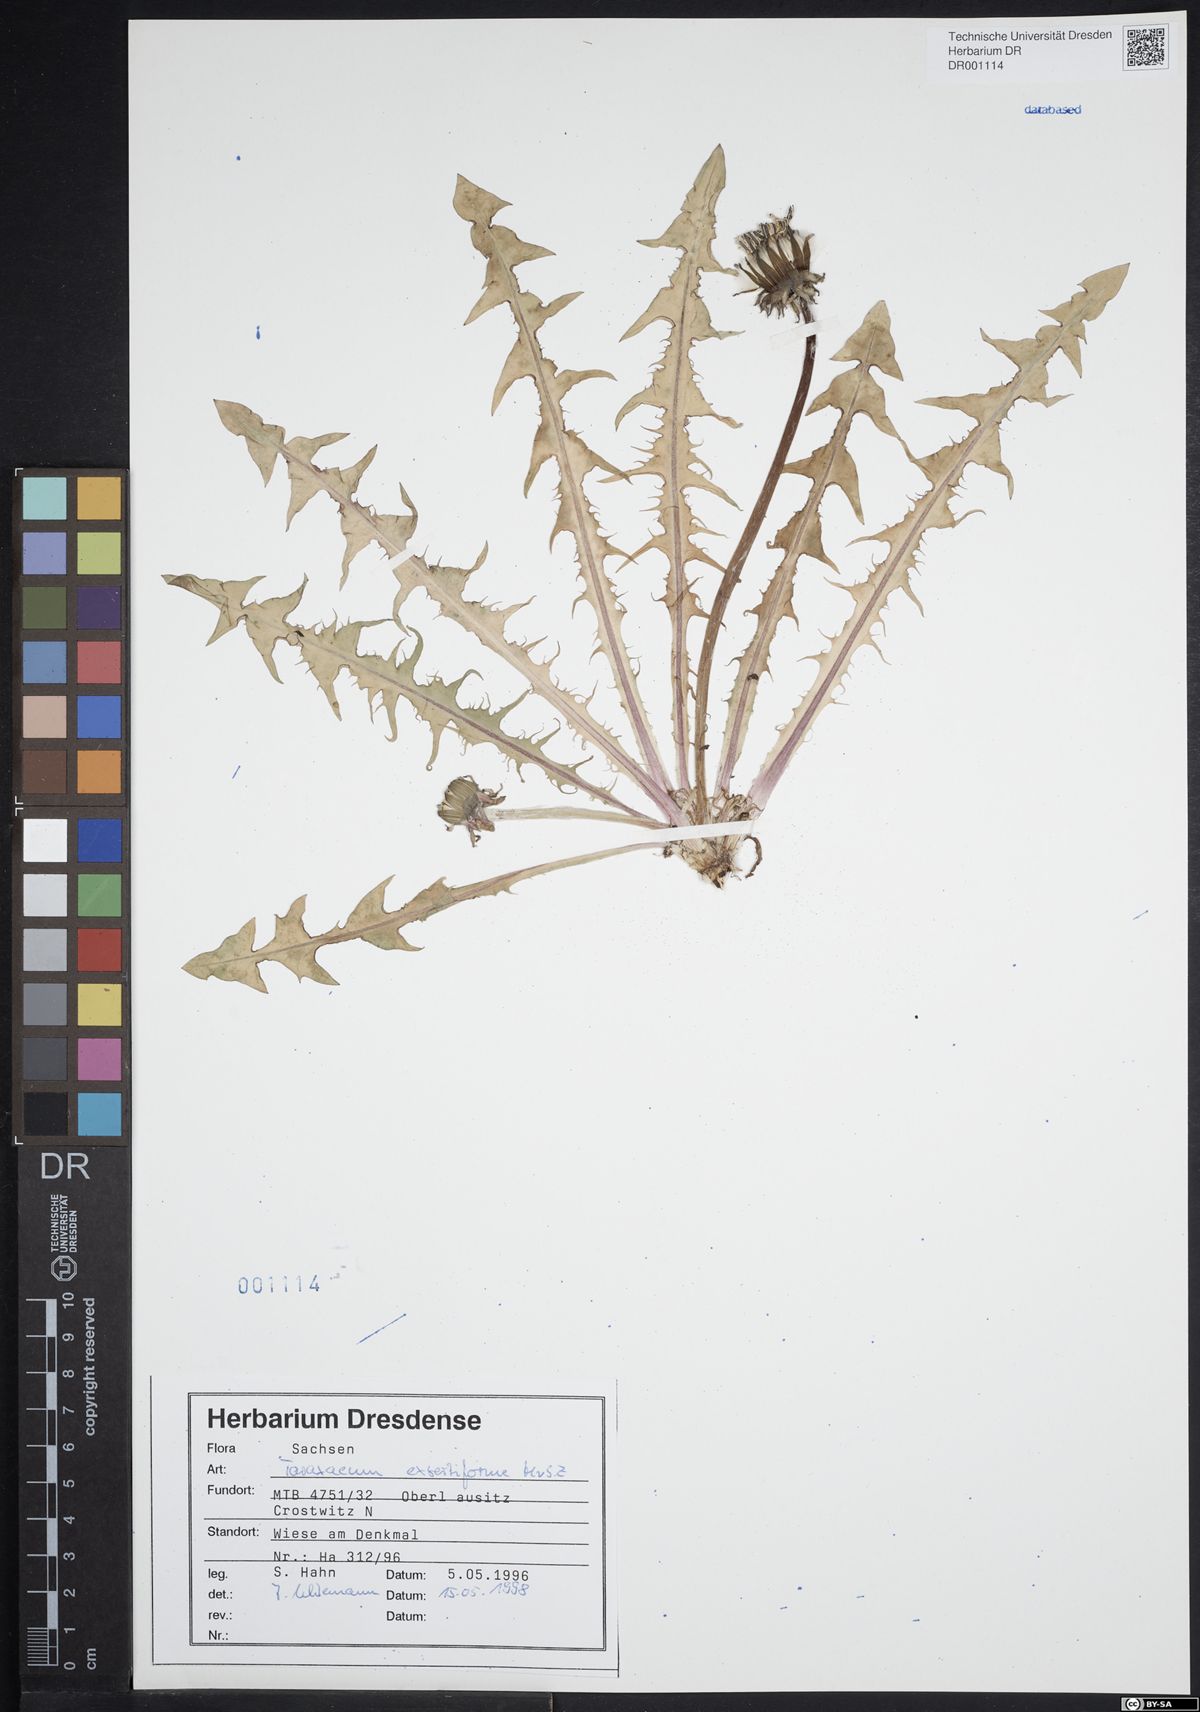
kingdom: Plantae
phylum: Tracheophyta
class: Magnoliopsida
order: Asterales
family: Asteraceae
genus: Taraxacum
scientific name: Taraxacum exsertiforme
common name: Erect-bracted dandelion
